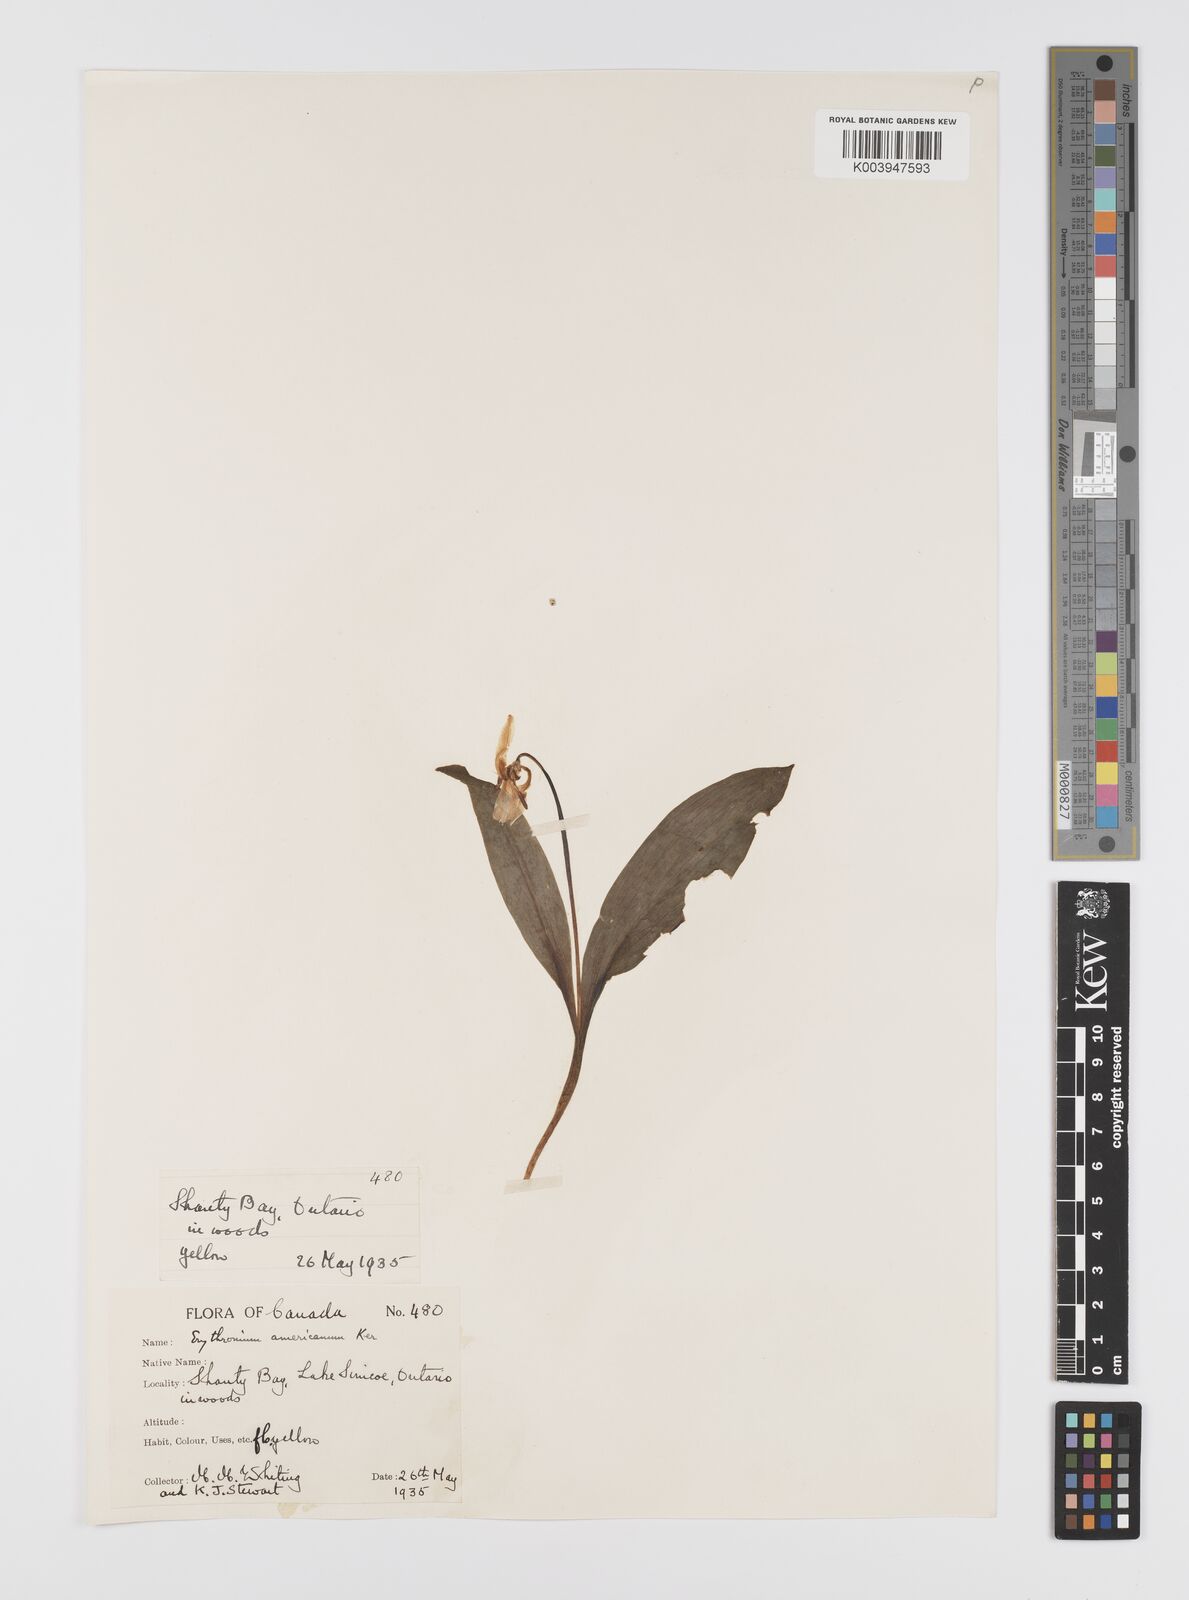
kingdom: Plantae
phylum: Tracheophyta
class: Liliopsida
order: Liliales
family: Liliaceae
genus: Erythronium
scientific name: Erythronium grandiflorum
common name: Avalanche-lily
